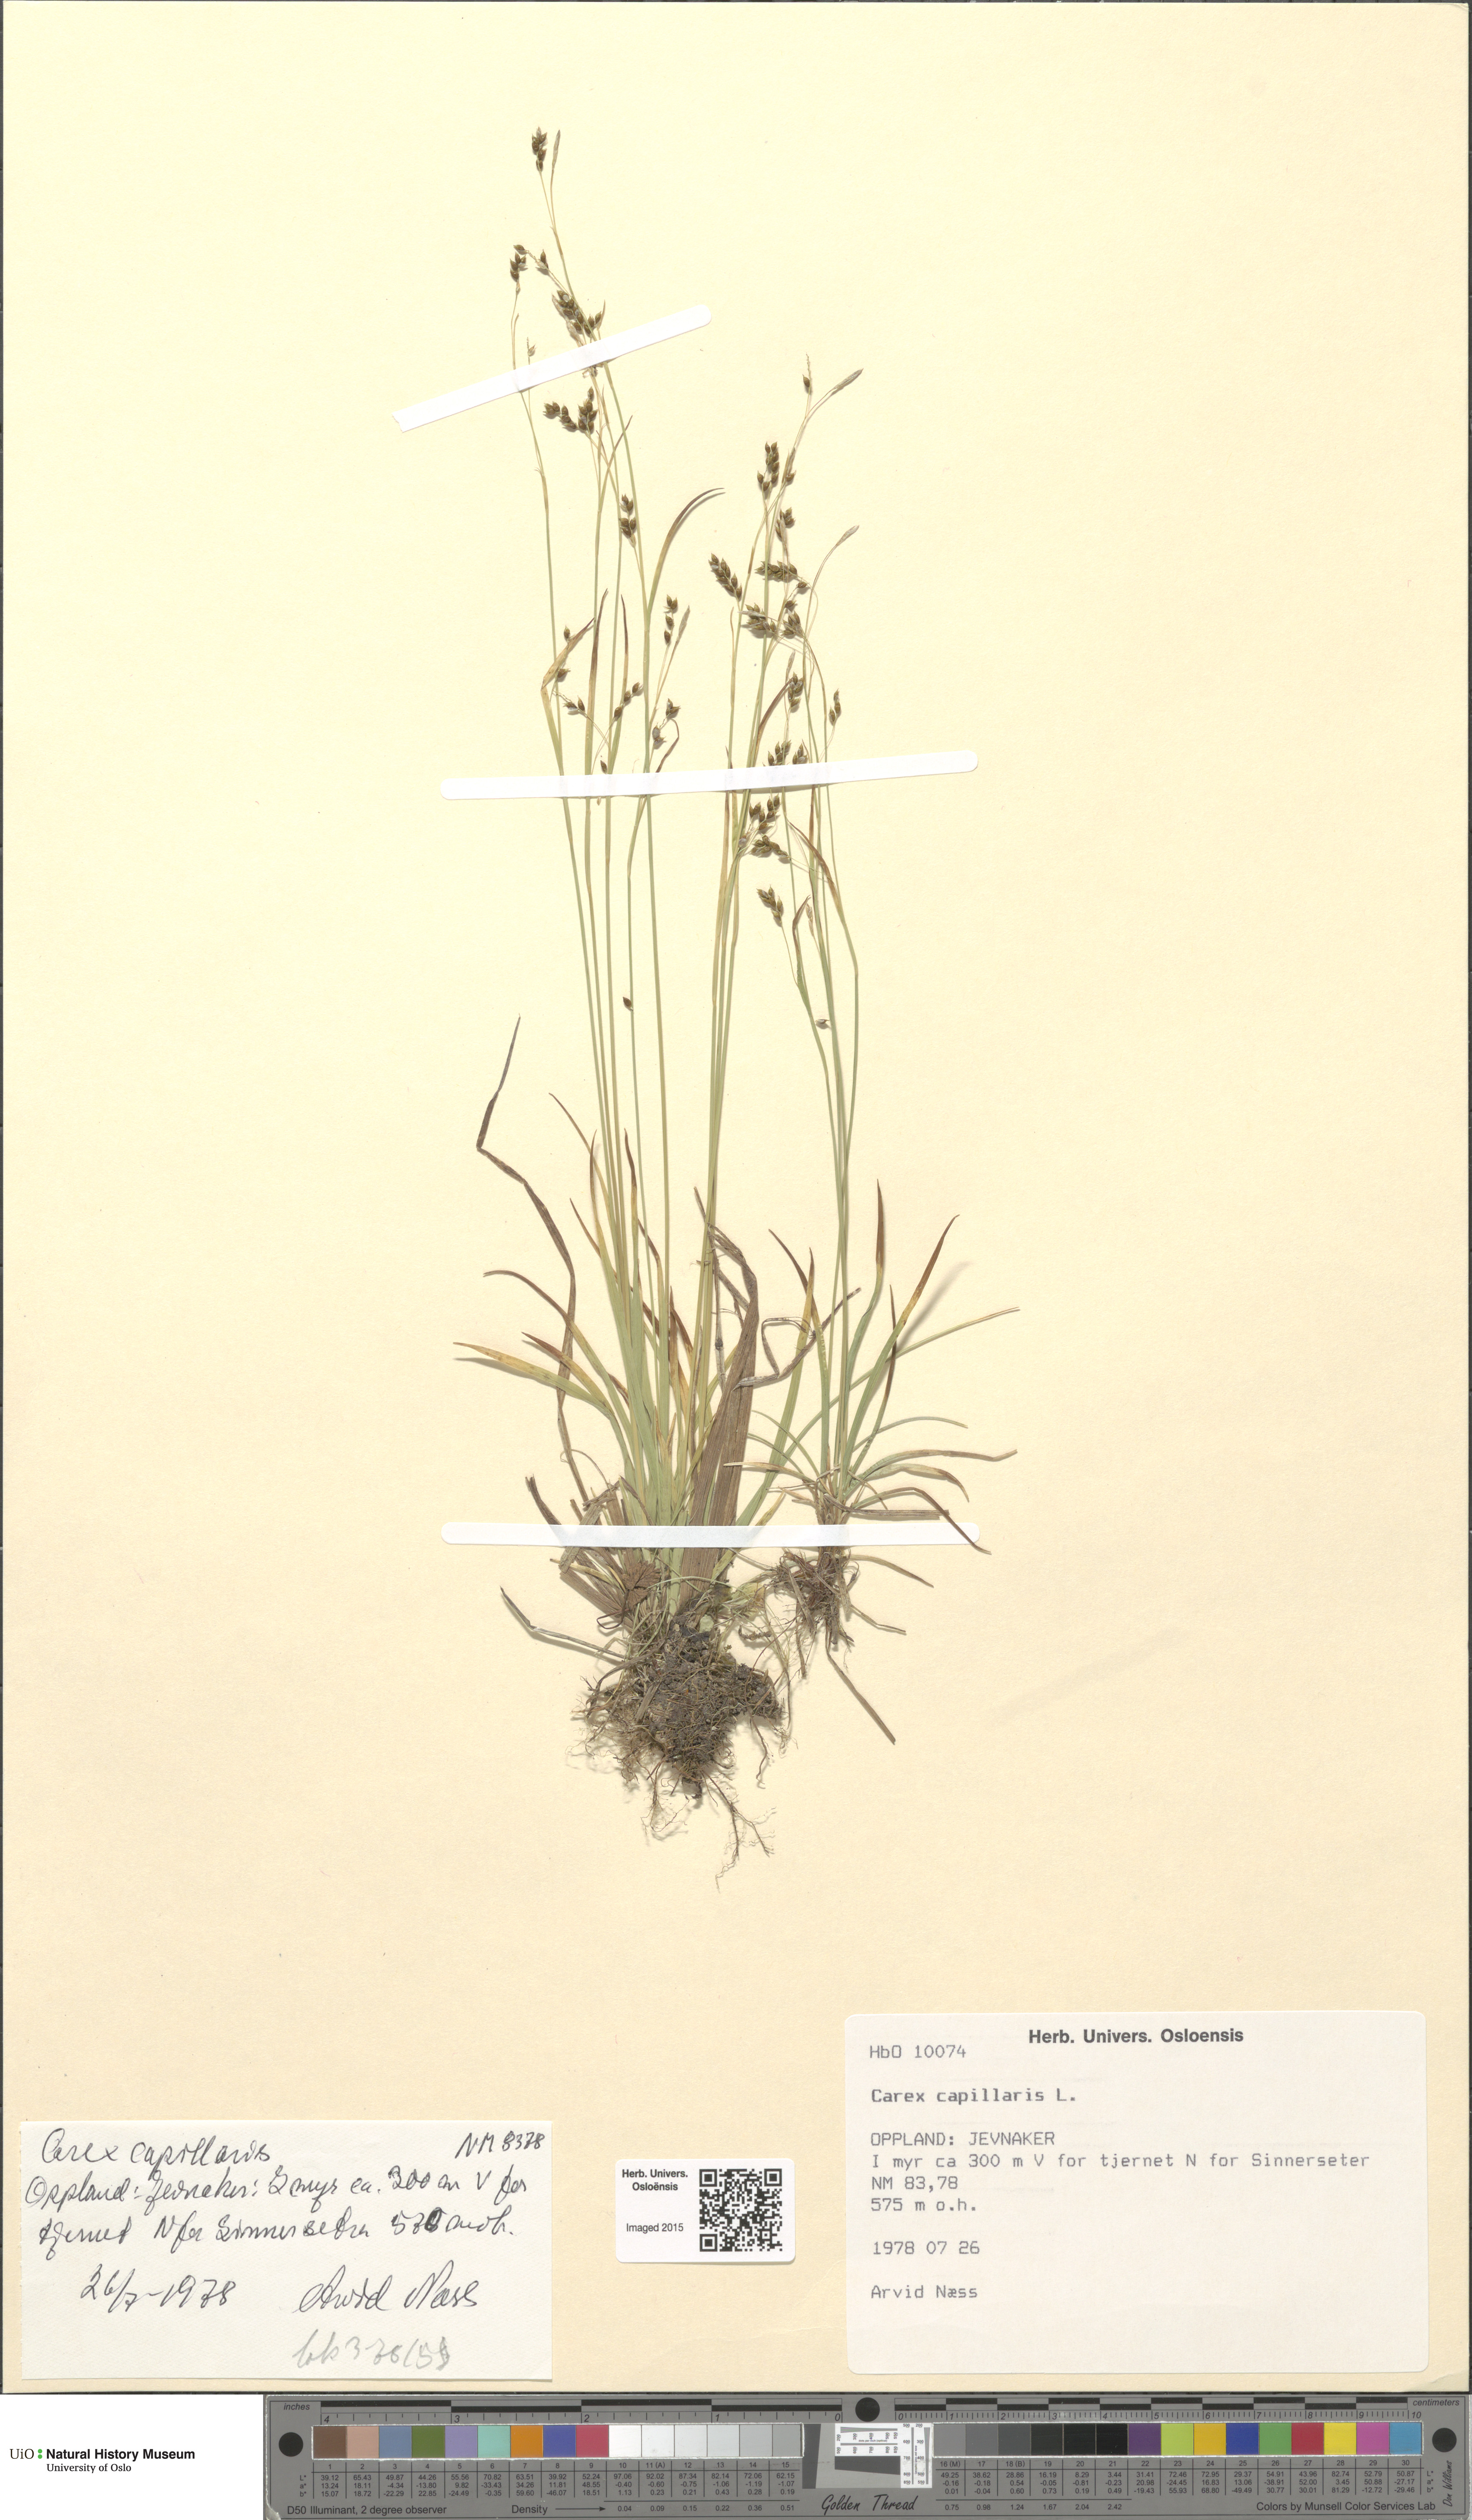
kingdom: Plantae
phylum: Tracheophyta
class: Liliopsida
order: Poales
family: Cyperaceae
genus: Carex
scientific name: Carex capillaris
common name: Hair sedge
